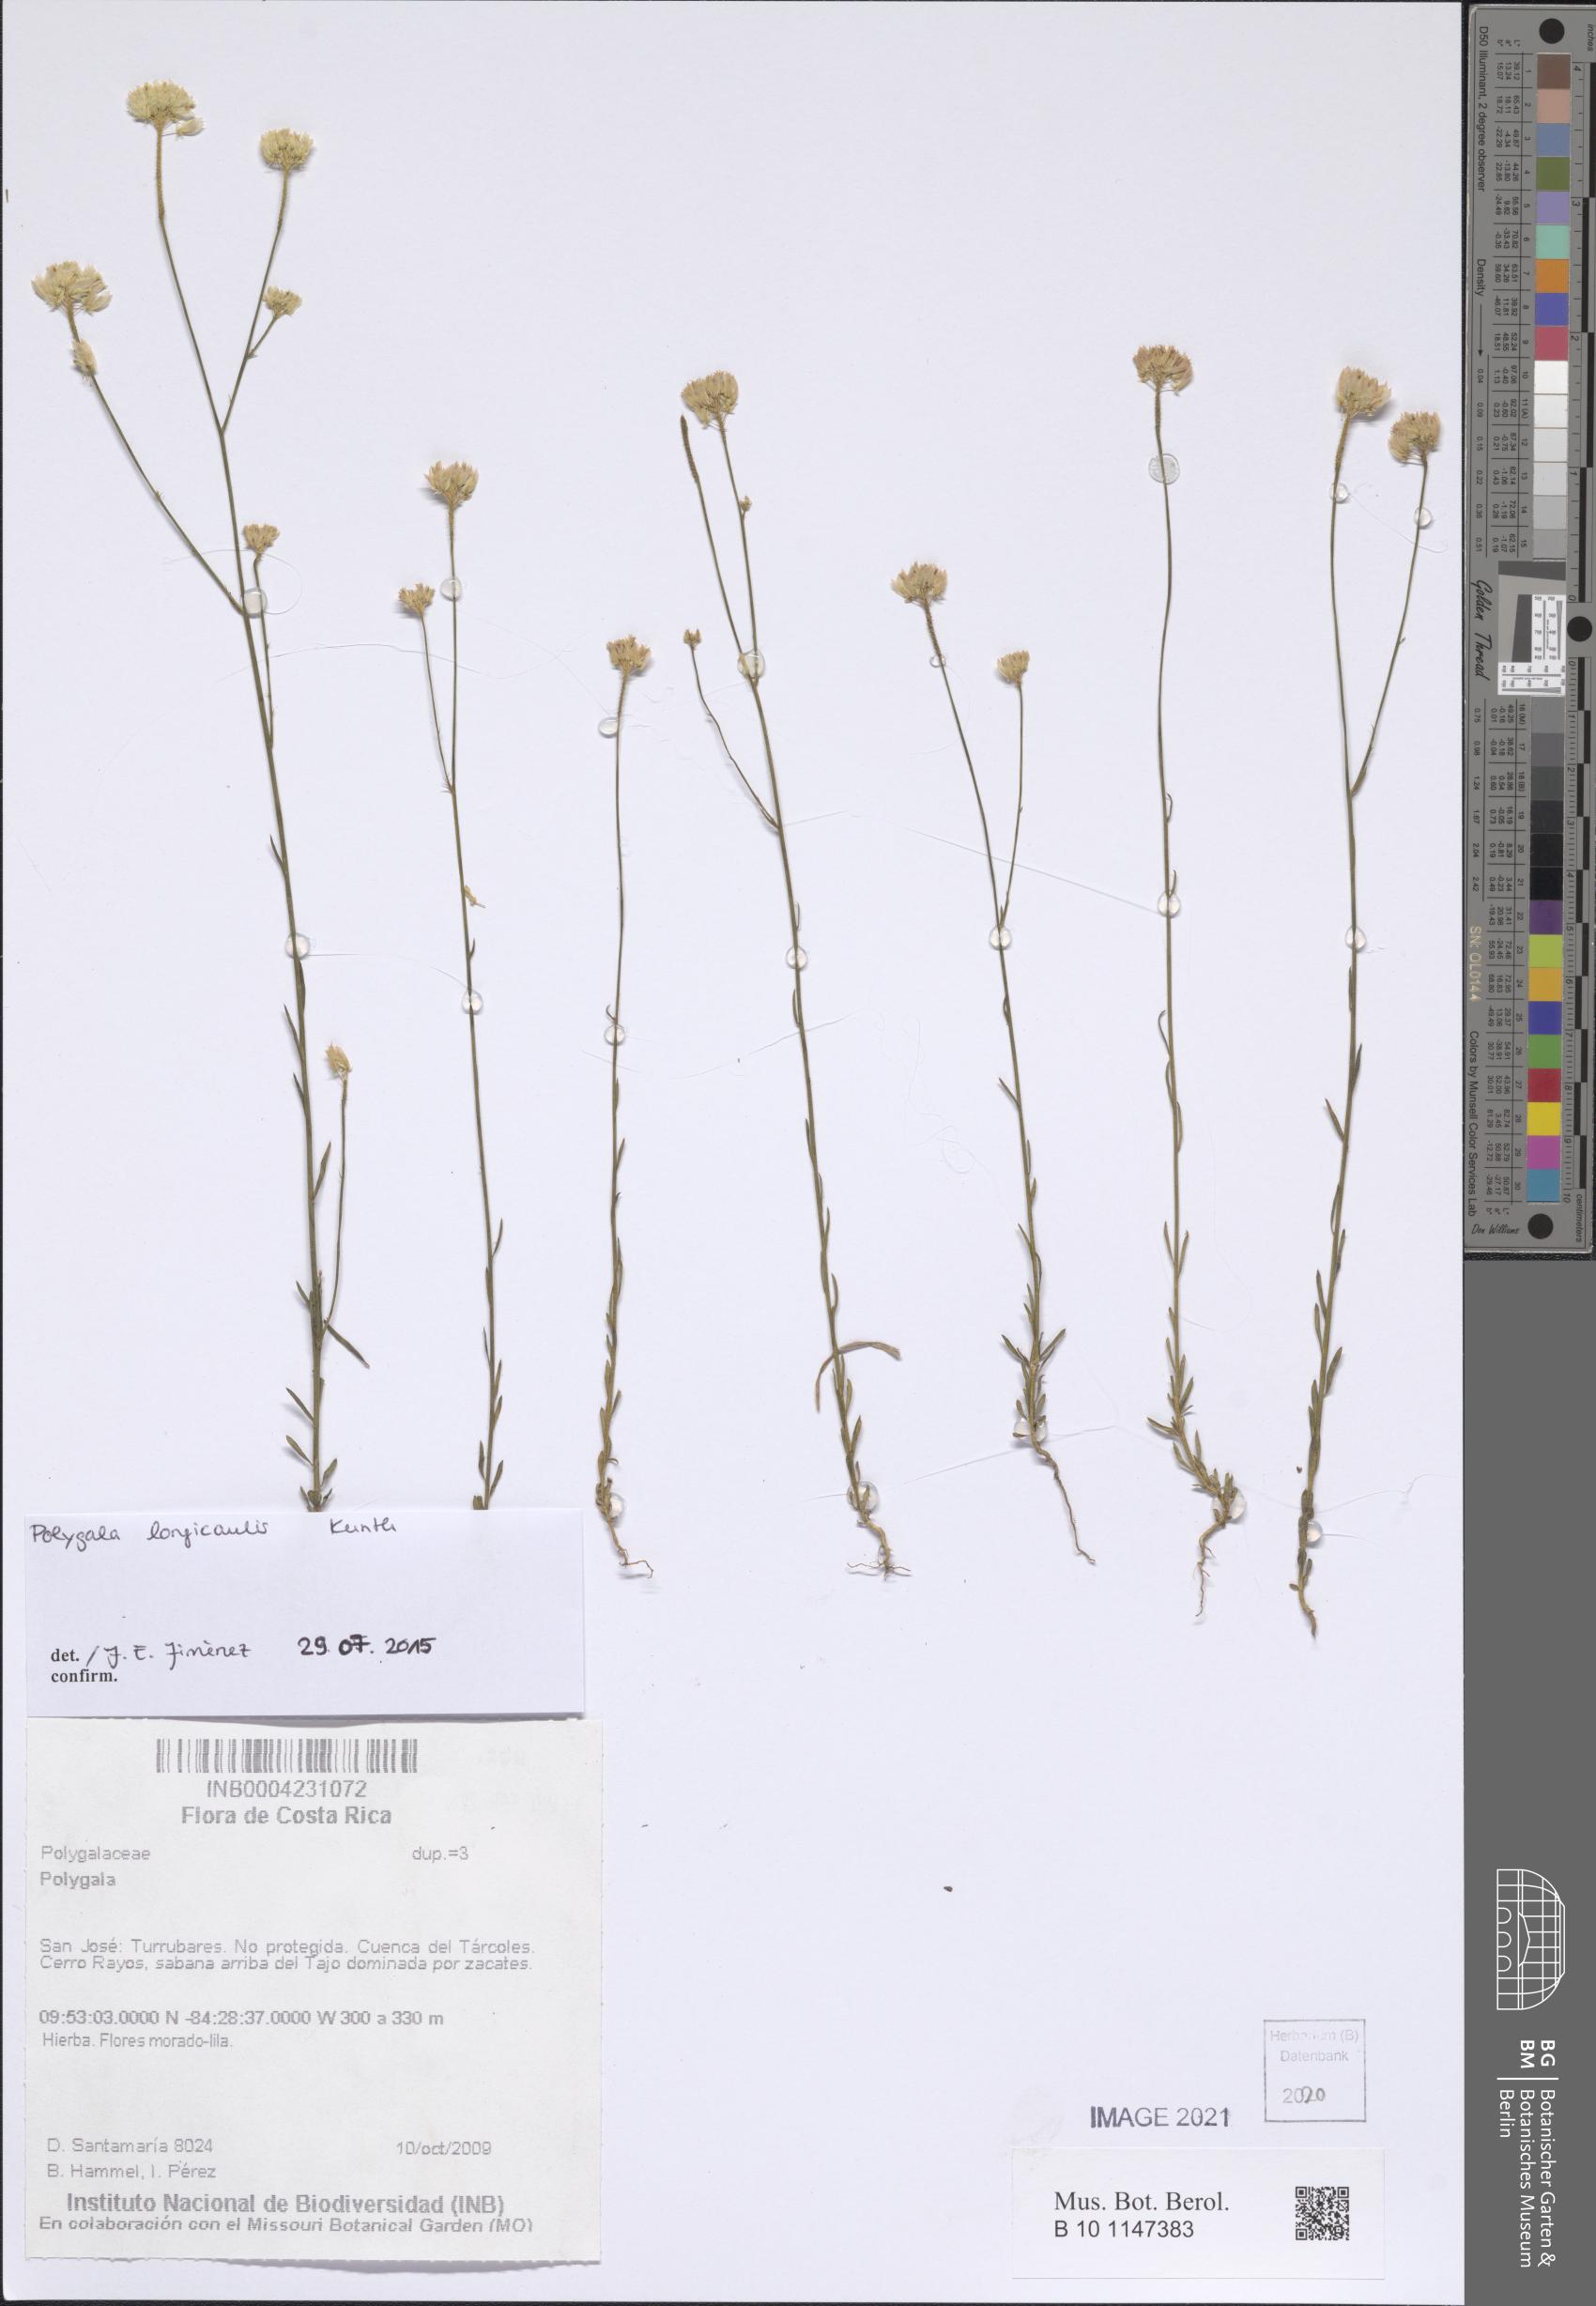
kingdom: Plantae
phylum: Tracheophyta
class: Magnoliopsida
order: Fabales
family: Polygalaceae
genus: Polygala
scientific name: Polygala longicaulis
